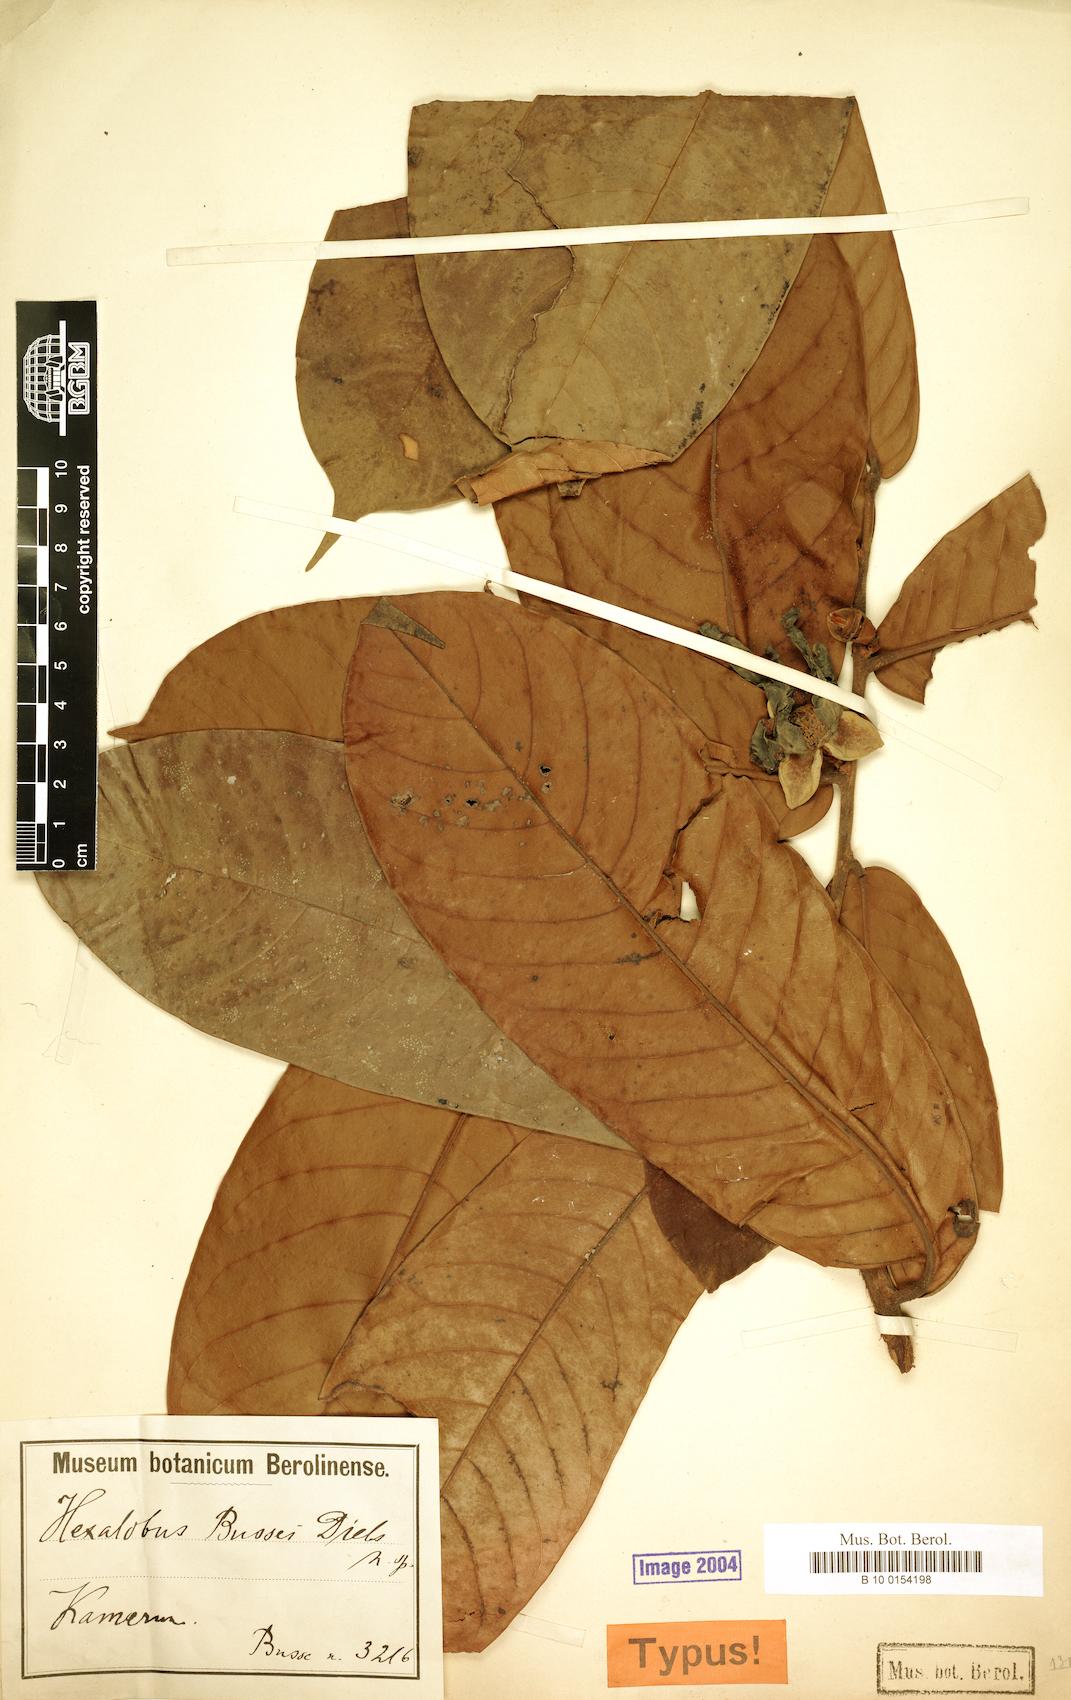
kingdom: Plantae
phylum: Tracheophyta
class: Magnoliopsida
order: Magnoliales
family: Annonaceae
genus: Hexalobus
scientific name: Hexalobus bussei
